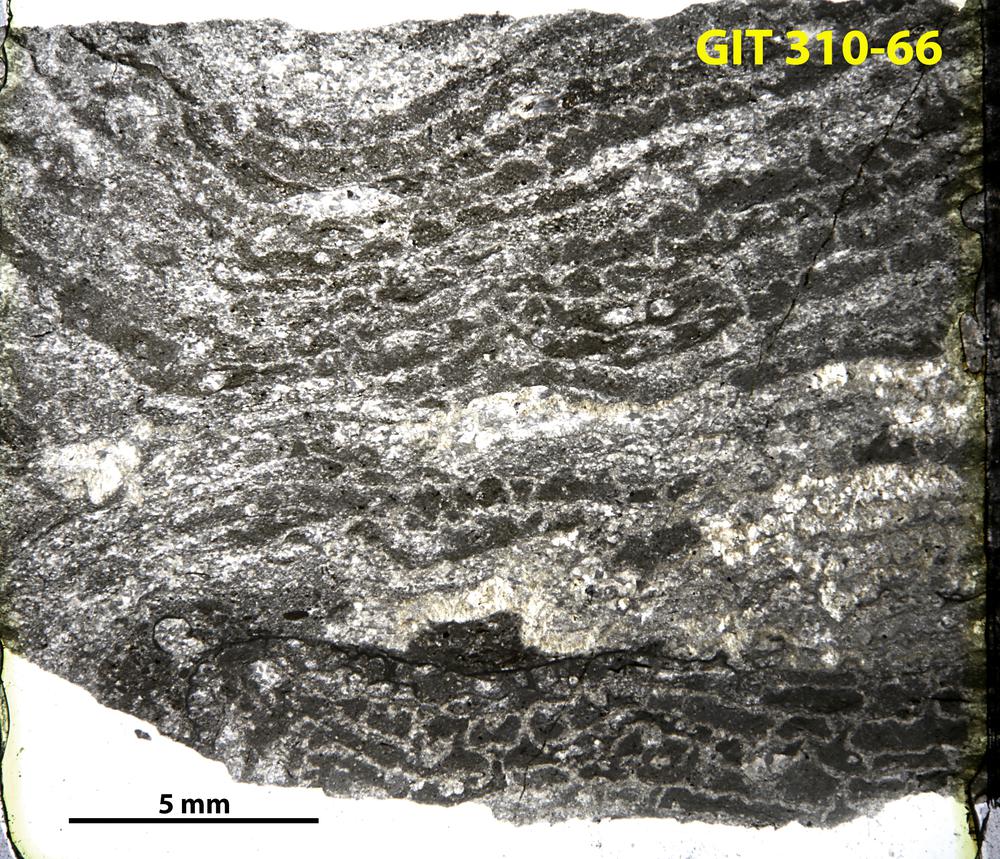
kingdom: Animalia
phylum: Porifera
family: Clathrodictyidae
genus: Clathrodictyon
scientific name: Clathrodictyon
